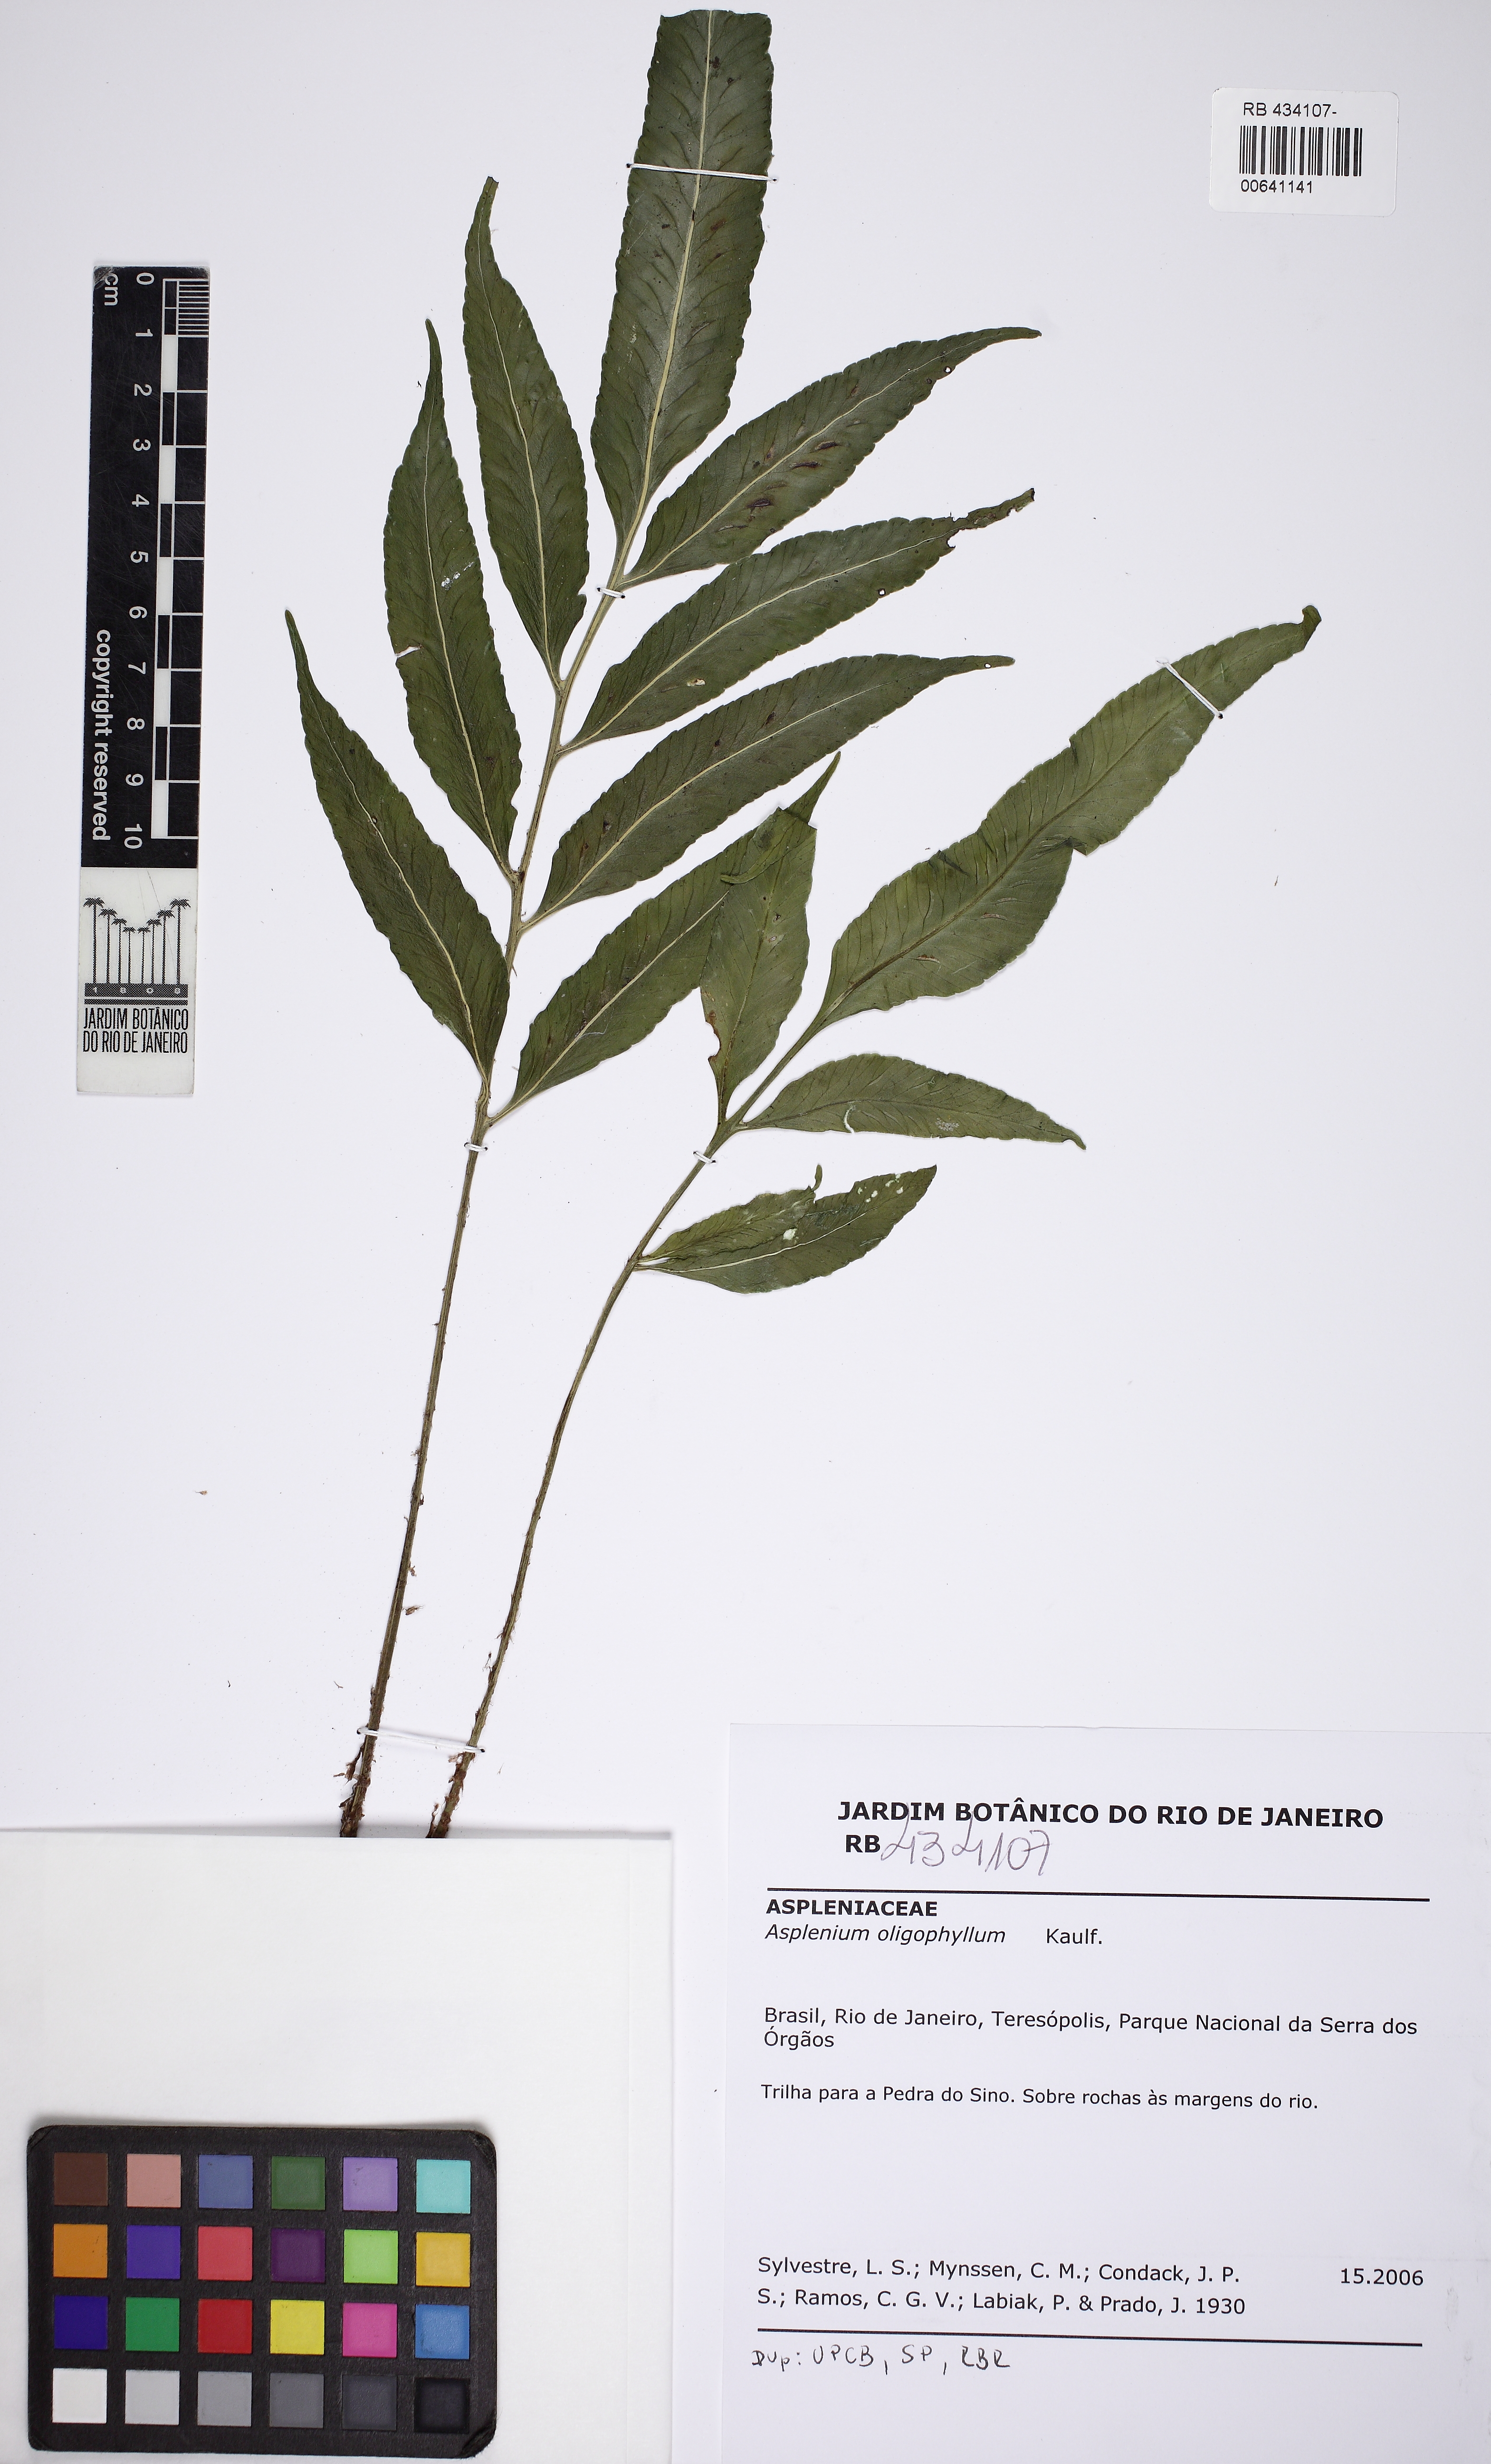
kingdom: Plantae
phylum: Tracheophyta
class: Polypodiopsida
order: Polypodiales
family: Aspleniaceae
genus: Asplenium
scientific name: Asplenium oligophyllum
